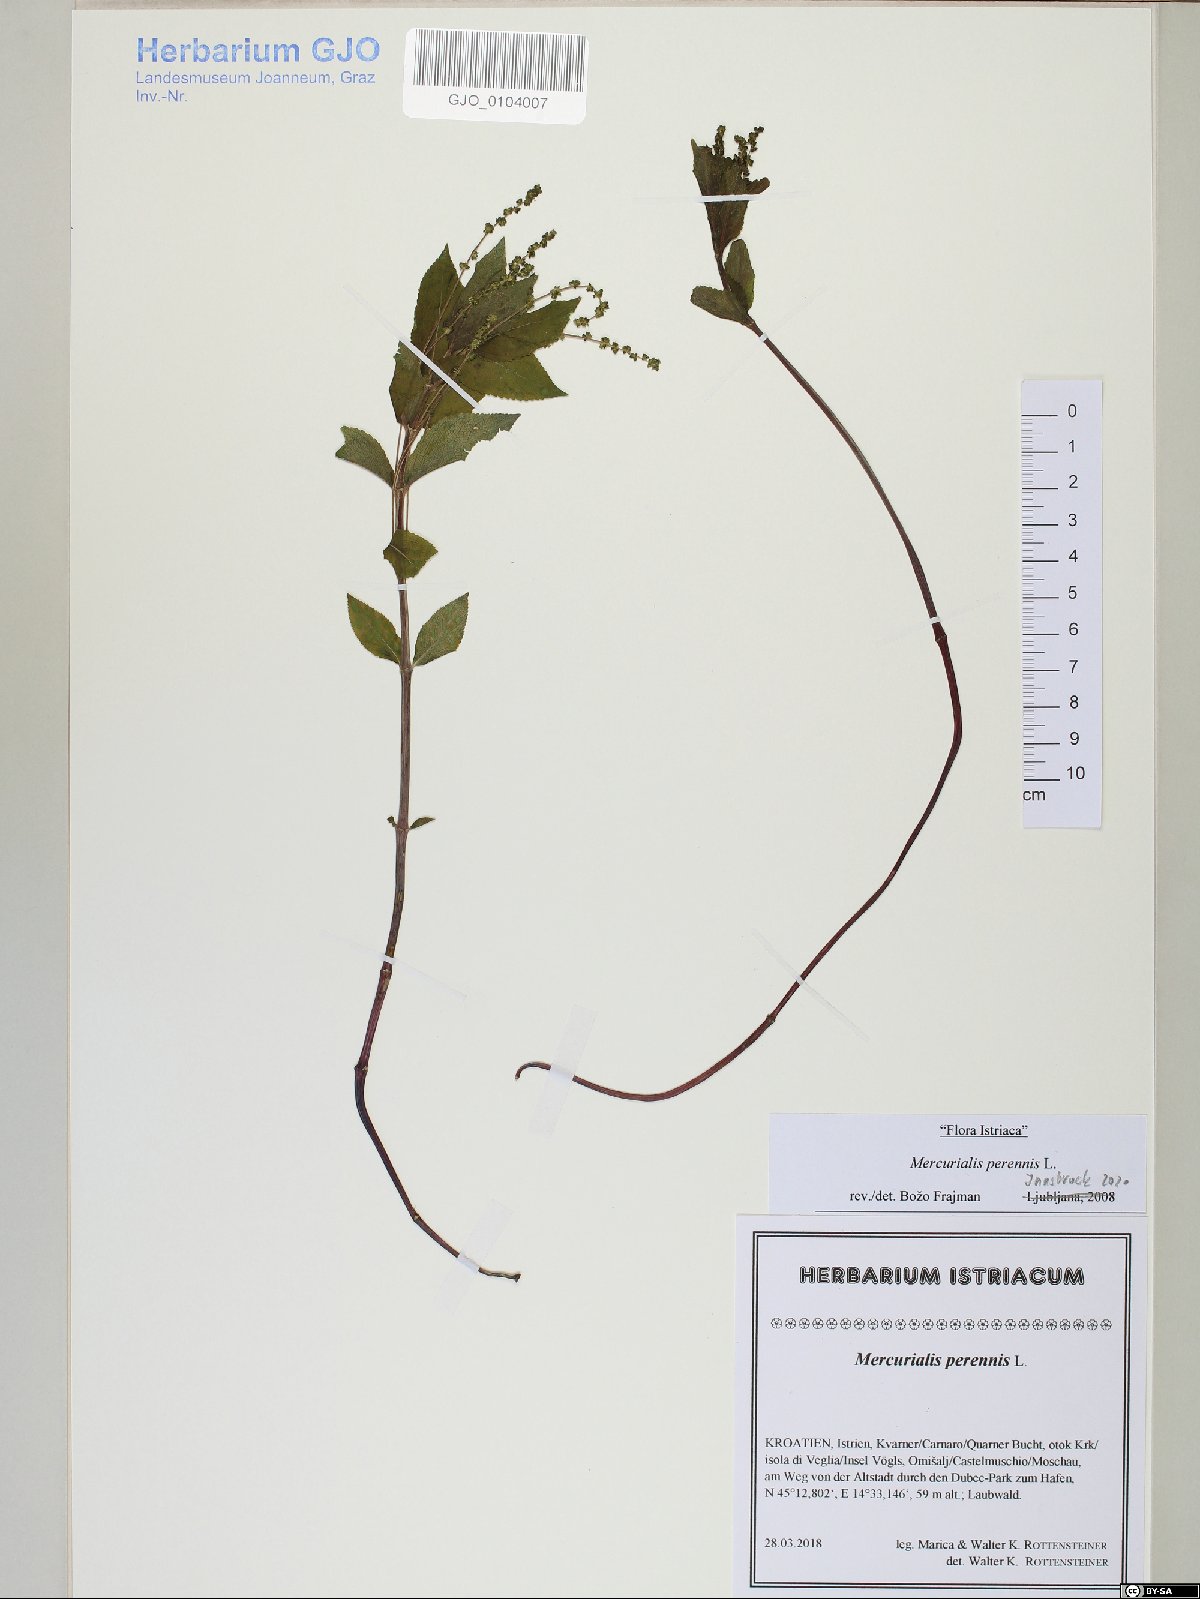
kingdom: Plantae
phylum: Tracheophyta
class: Magnoliopsida
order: Malpighiales
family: Euphorbiaceae
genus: Mercurialis
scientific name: Mercurialis perennis
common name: Dog mercury
